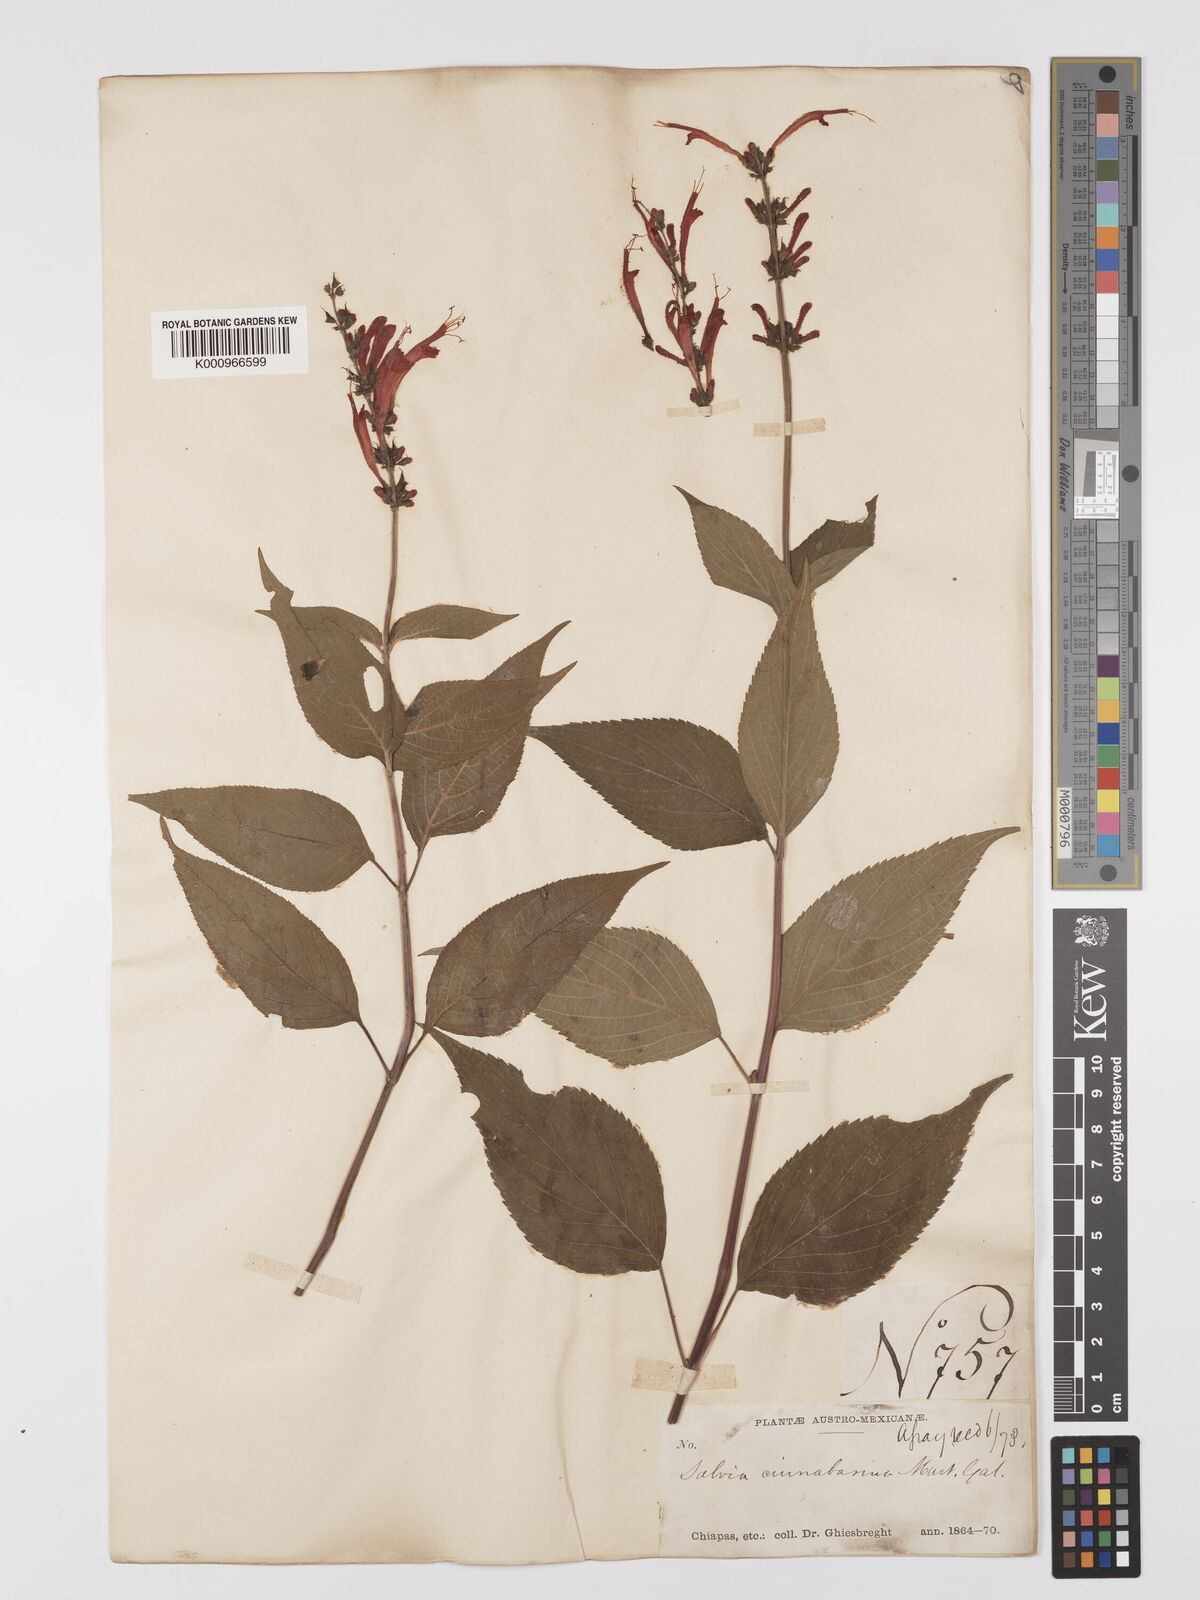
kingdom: Plantae
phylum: Tracheophyta
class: Magnoliopsida
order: Lamiales
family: Lamiaceae
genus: Salvia
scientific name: Salvia cinnabarina
